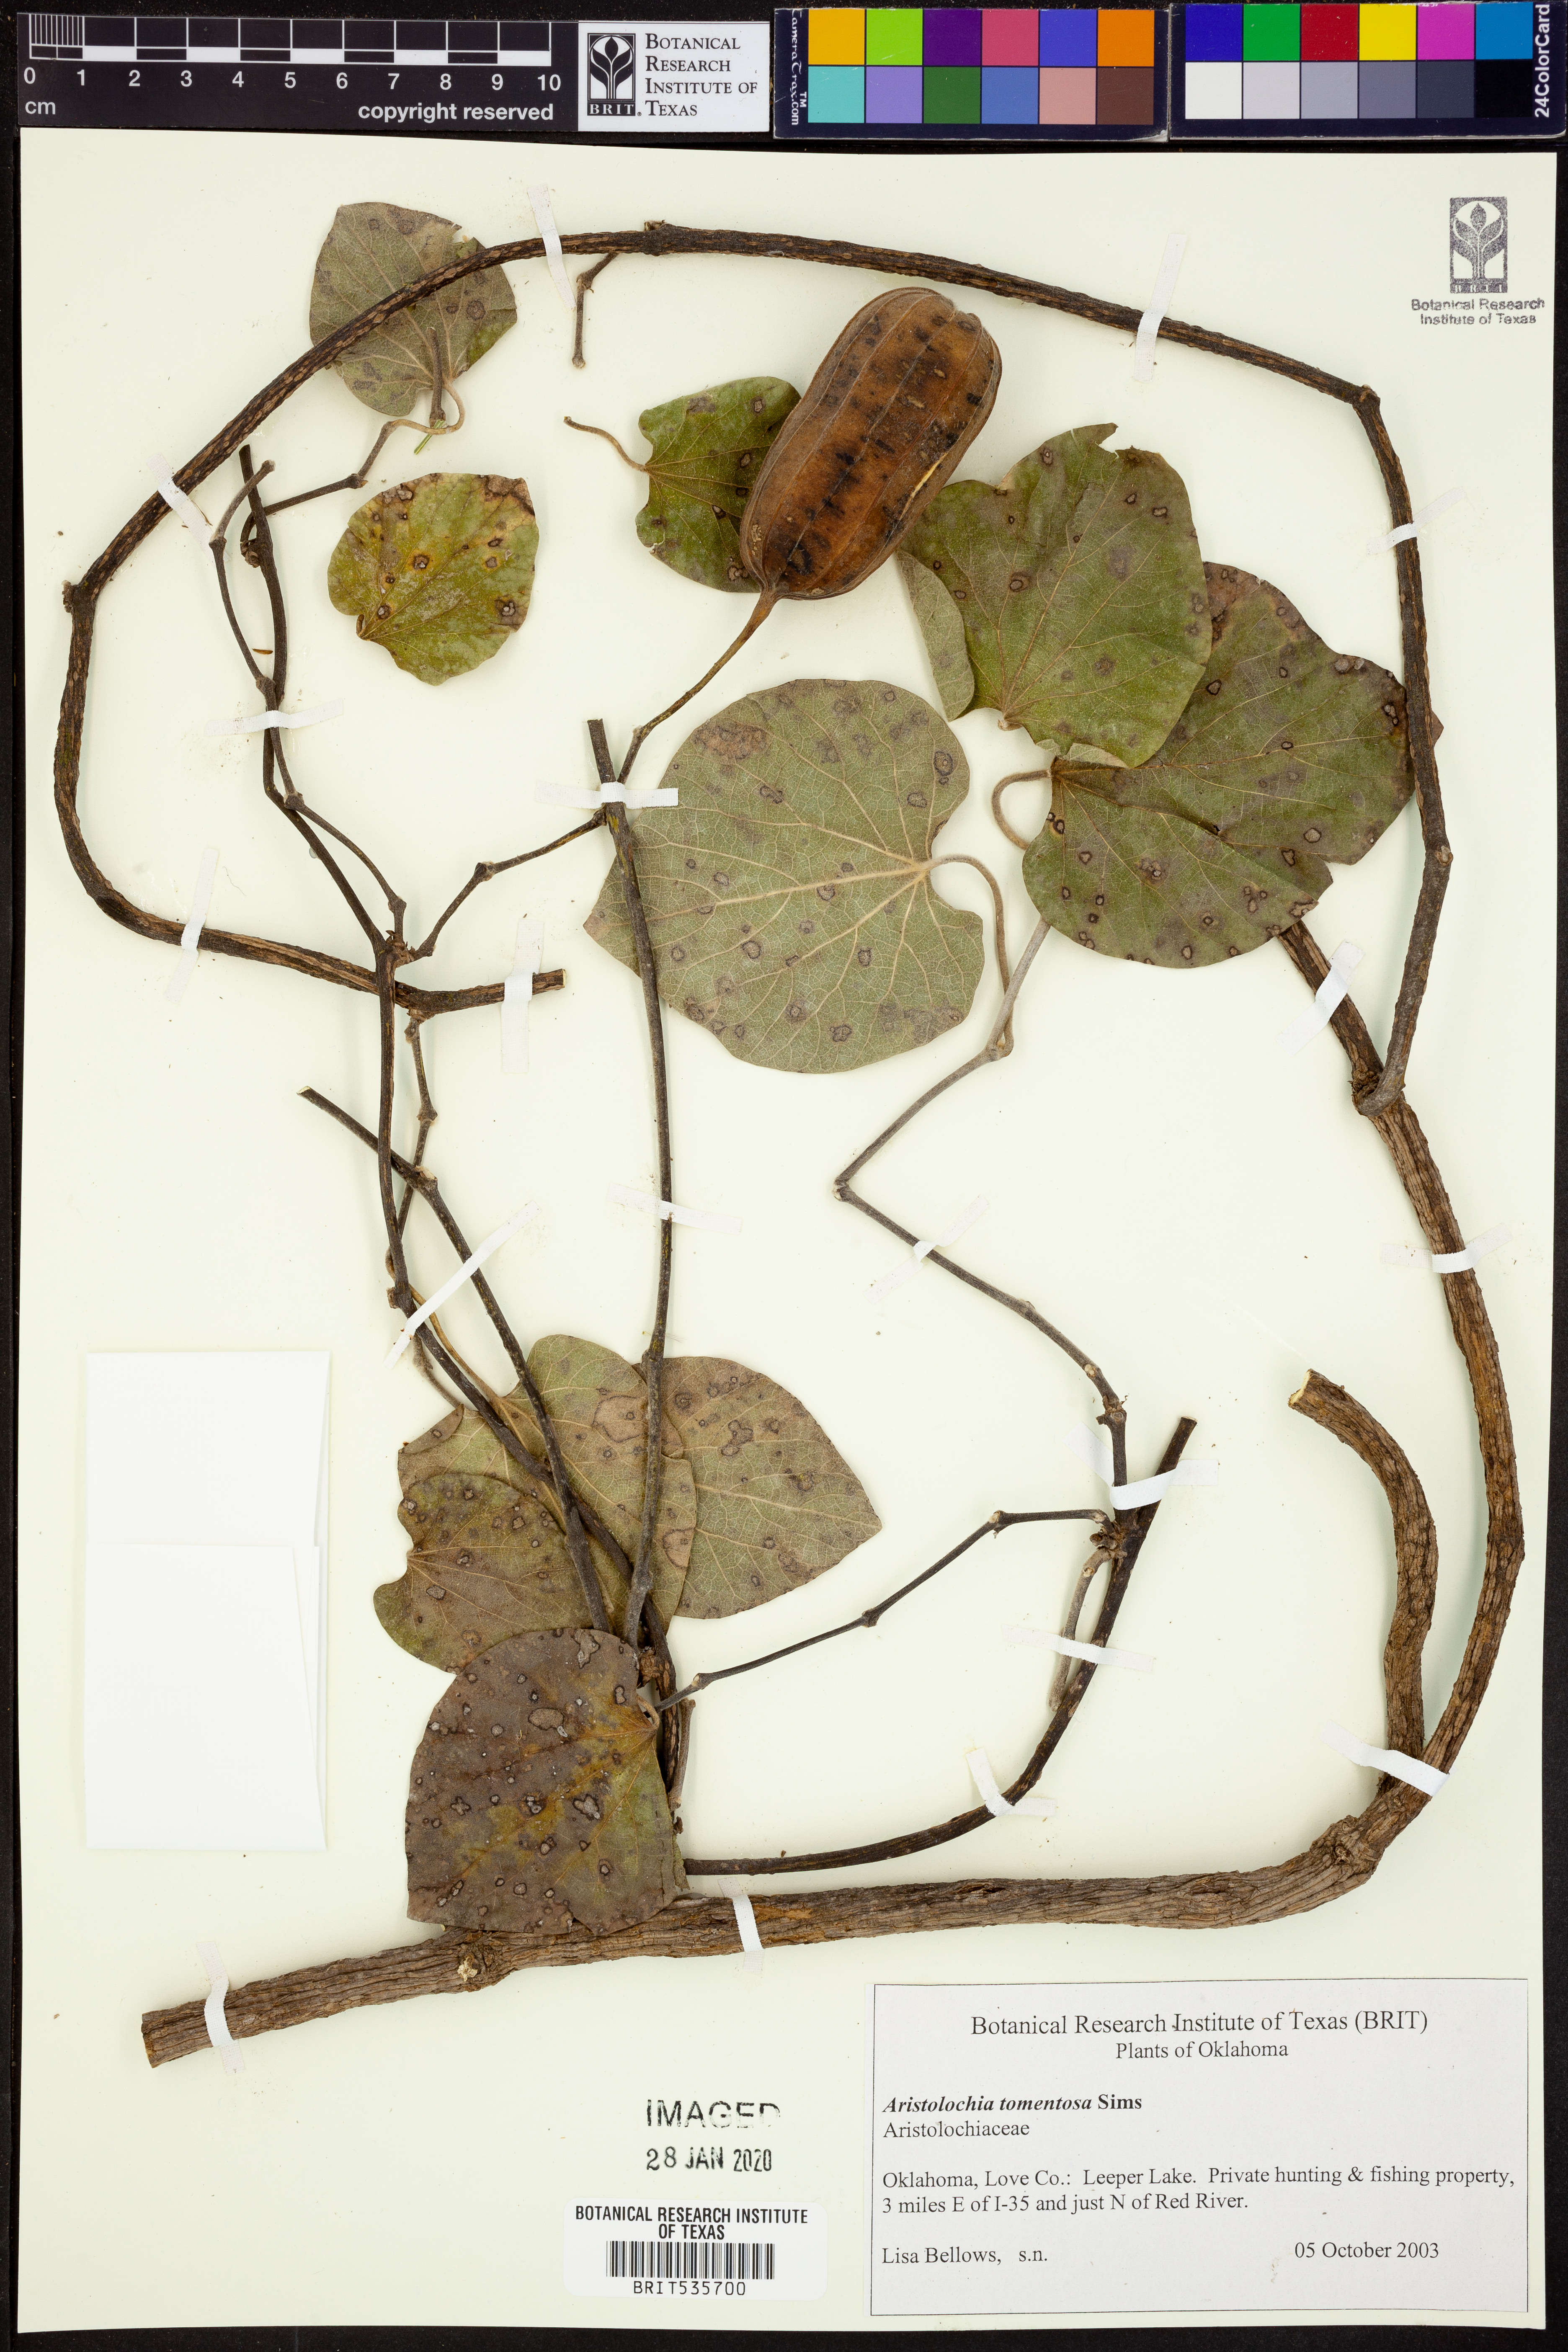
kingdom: Plantae
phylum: Tracheophyta
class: Magnoliopsida
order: Piperales
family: Aristolochiaceae
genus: Isotrema
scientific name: Isotrema tomentosum
